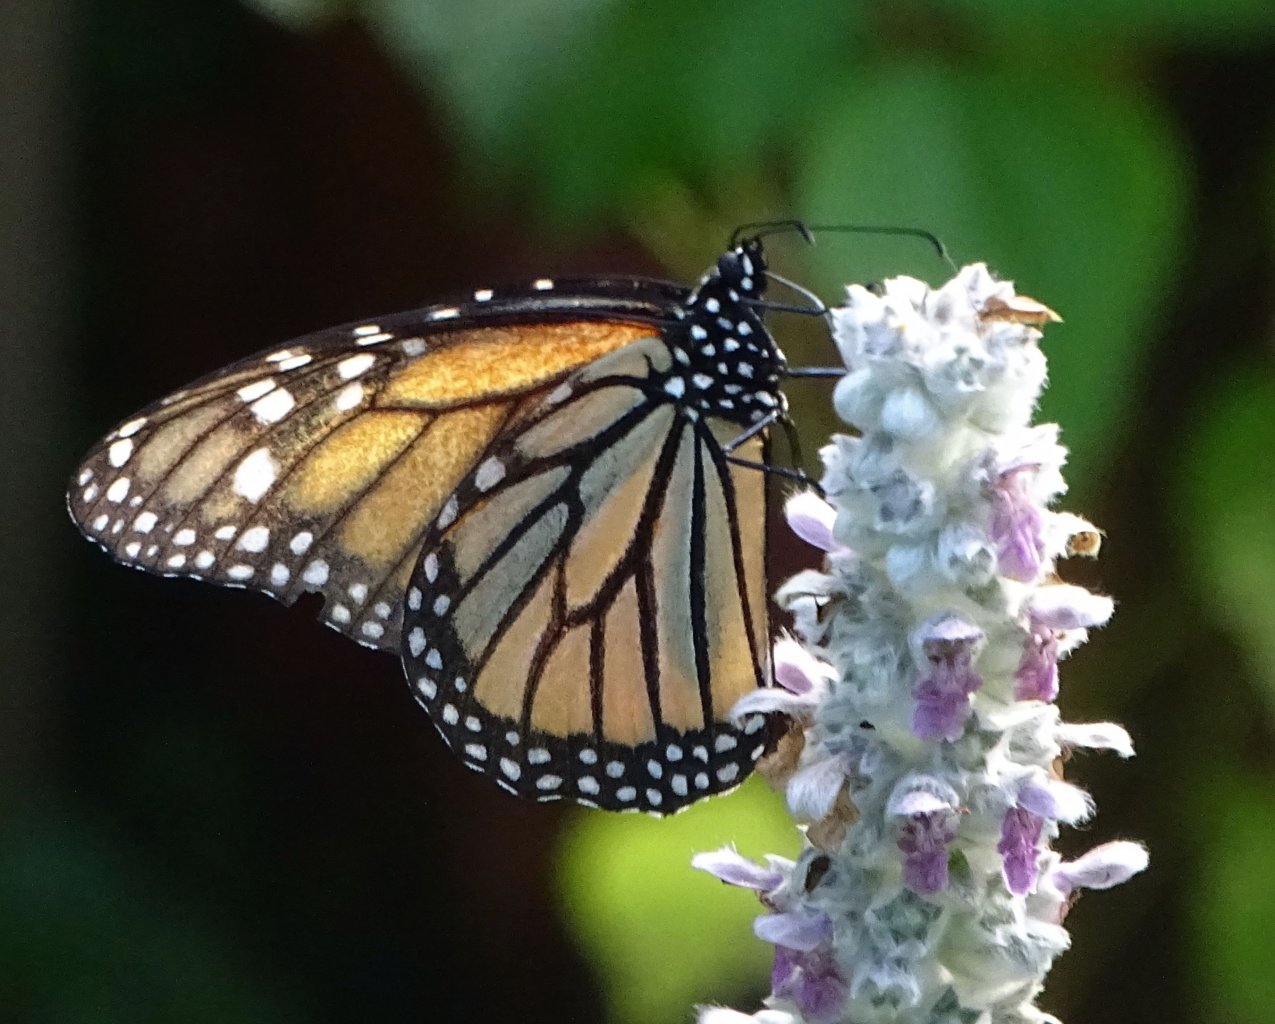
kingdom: Animalia
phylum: Arthropoda
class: Insecta
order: Lepidoptera
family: Nymphalidae
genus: Danaus
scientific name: Danaus plexippus
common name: Monarch
